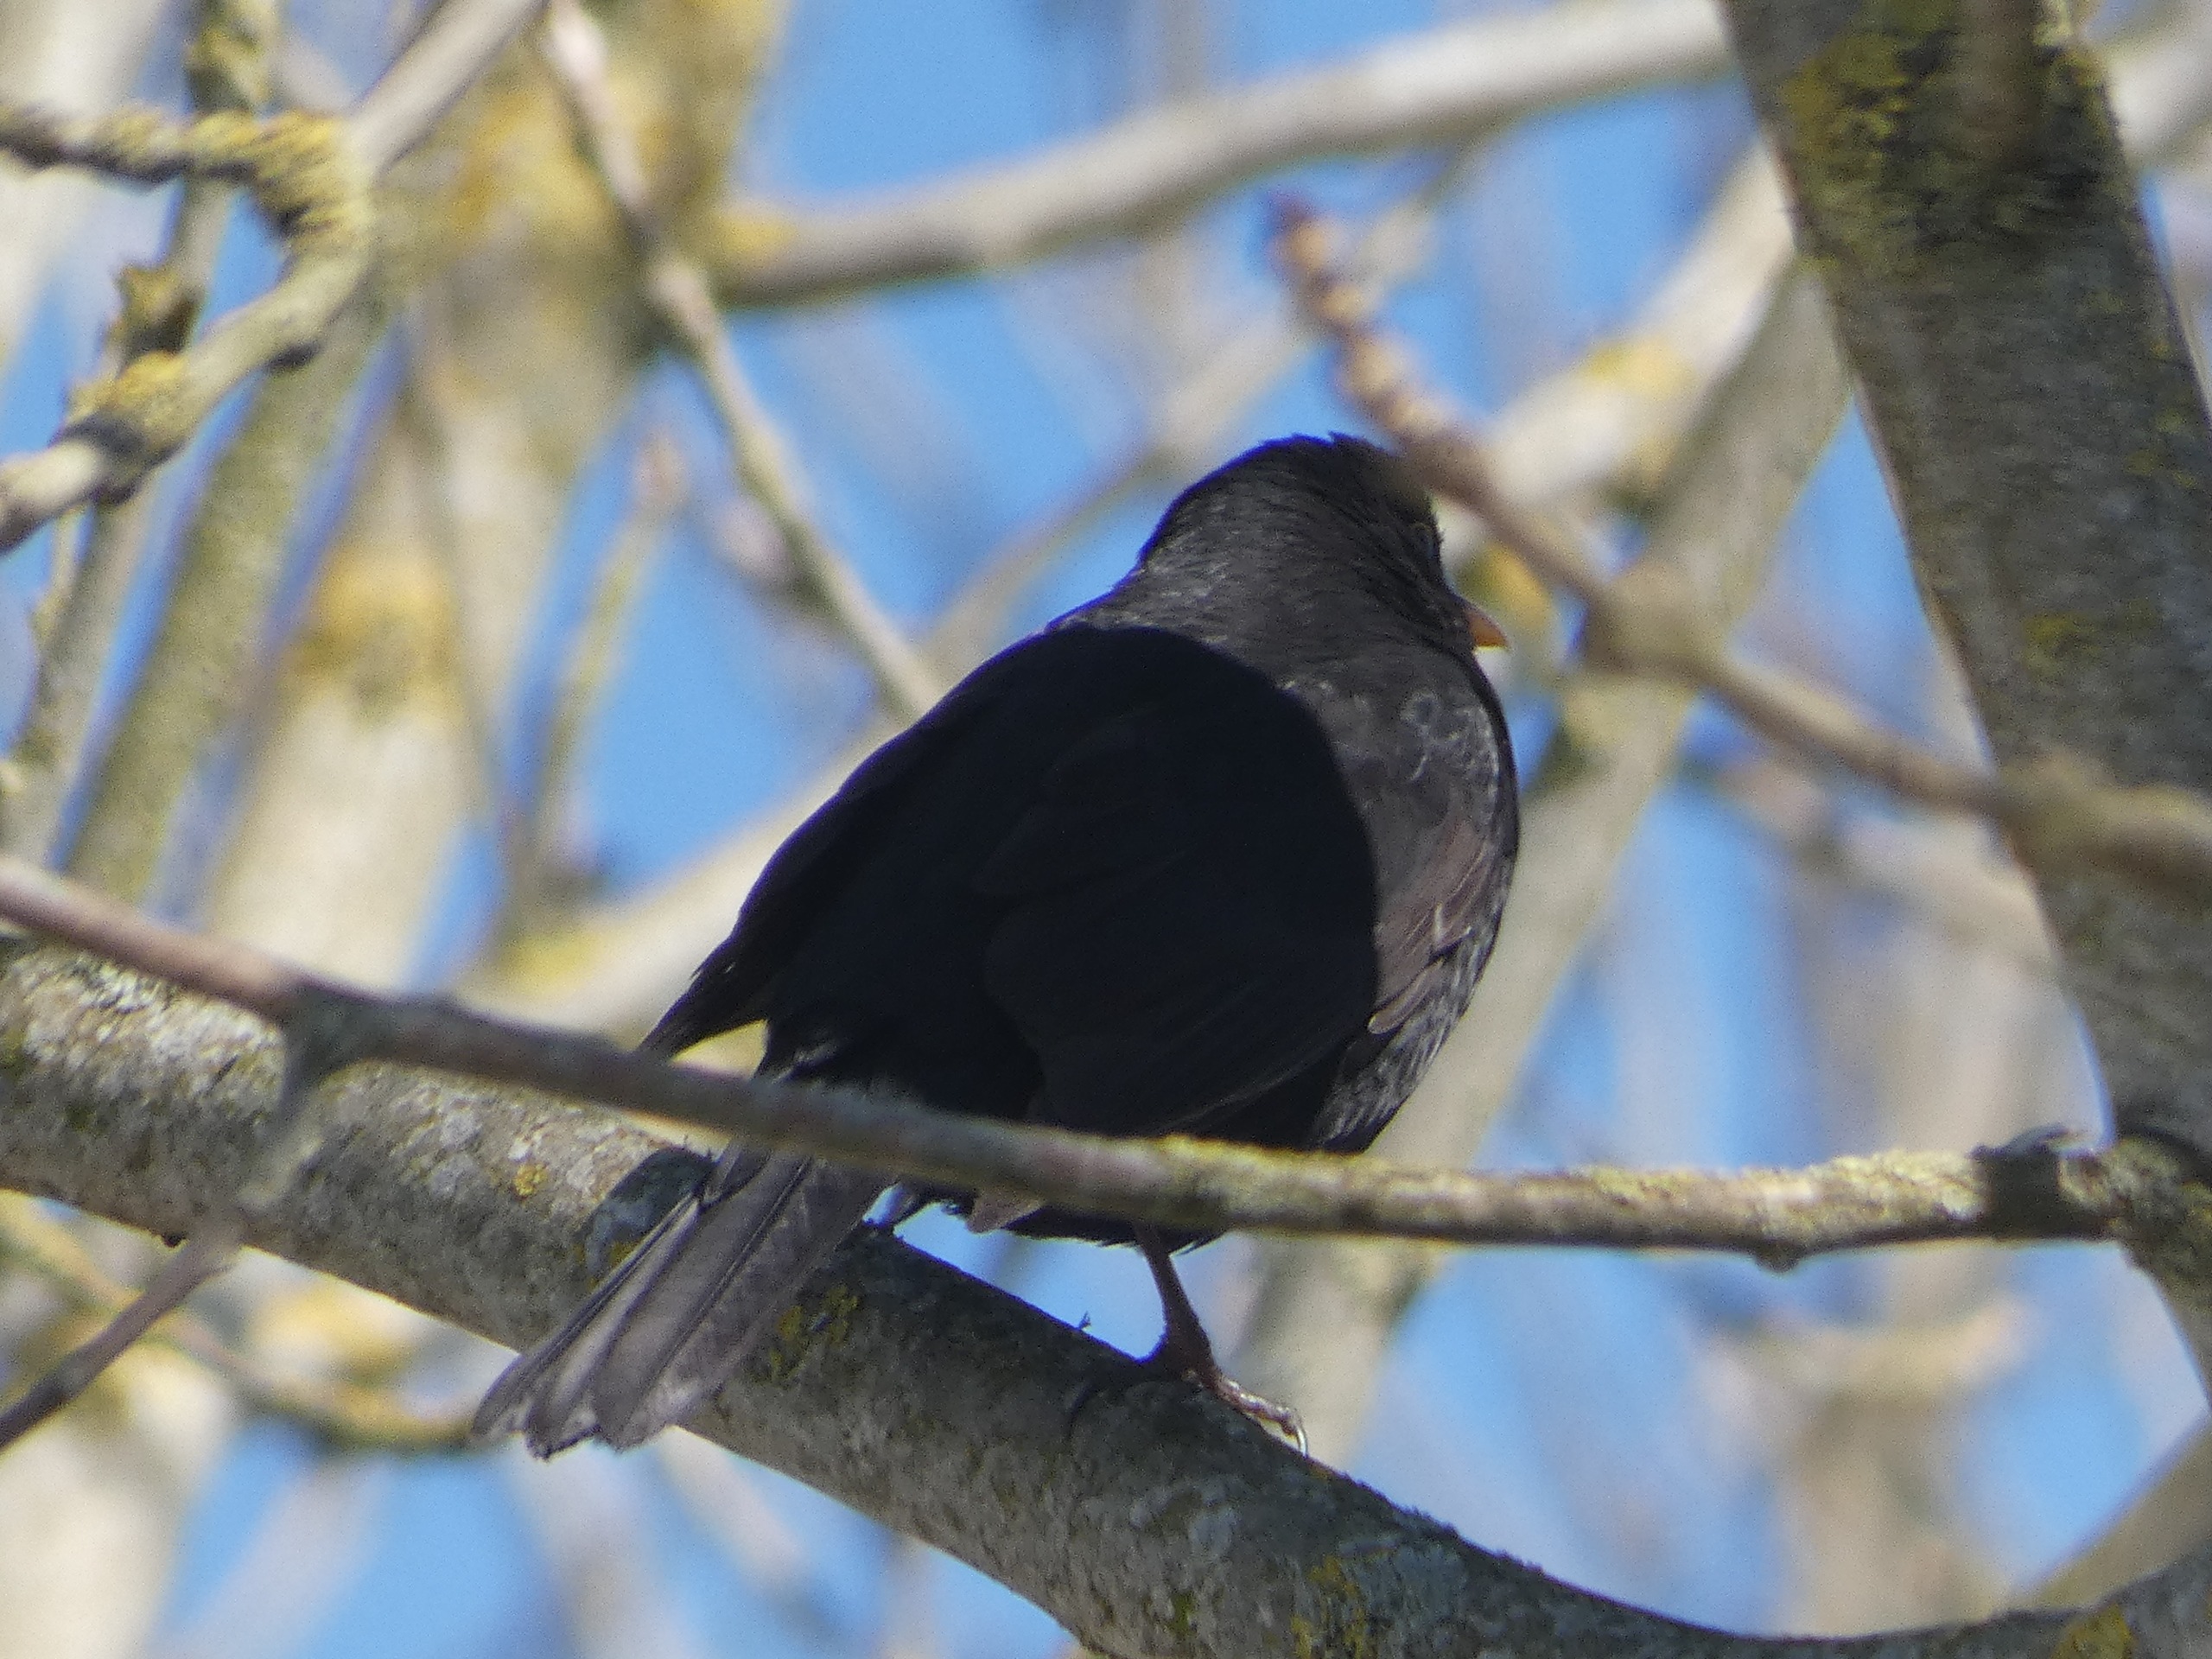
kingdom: Animalia
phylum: Chordata
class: Aves
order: Passeriformes
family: Turdidae
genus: Turdus
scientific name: Turdus merula
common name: Solsort
